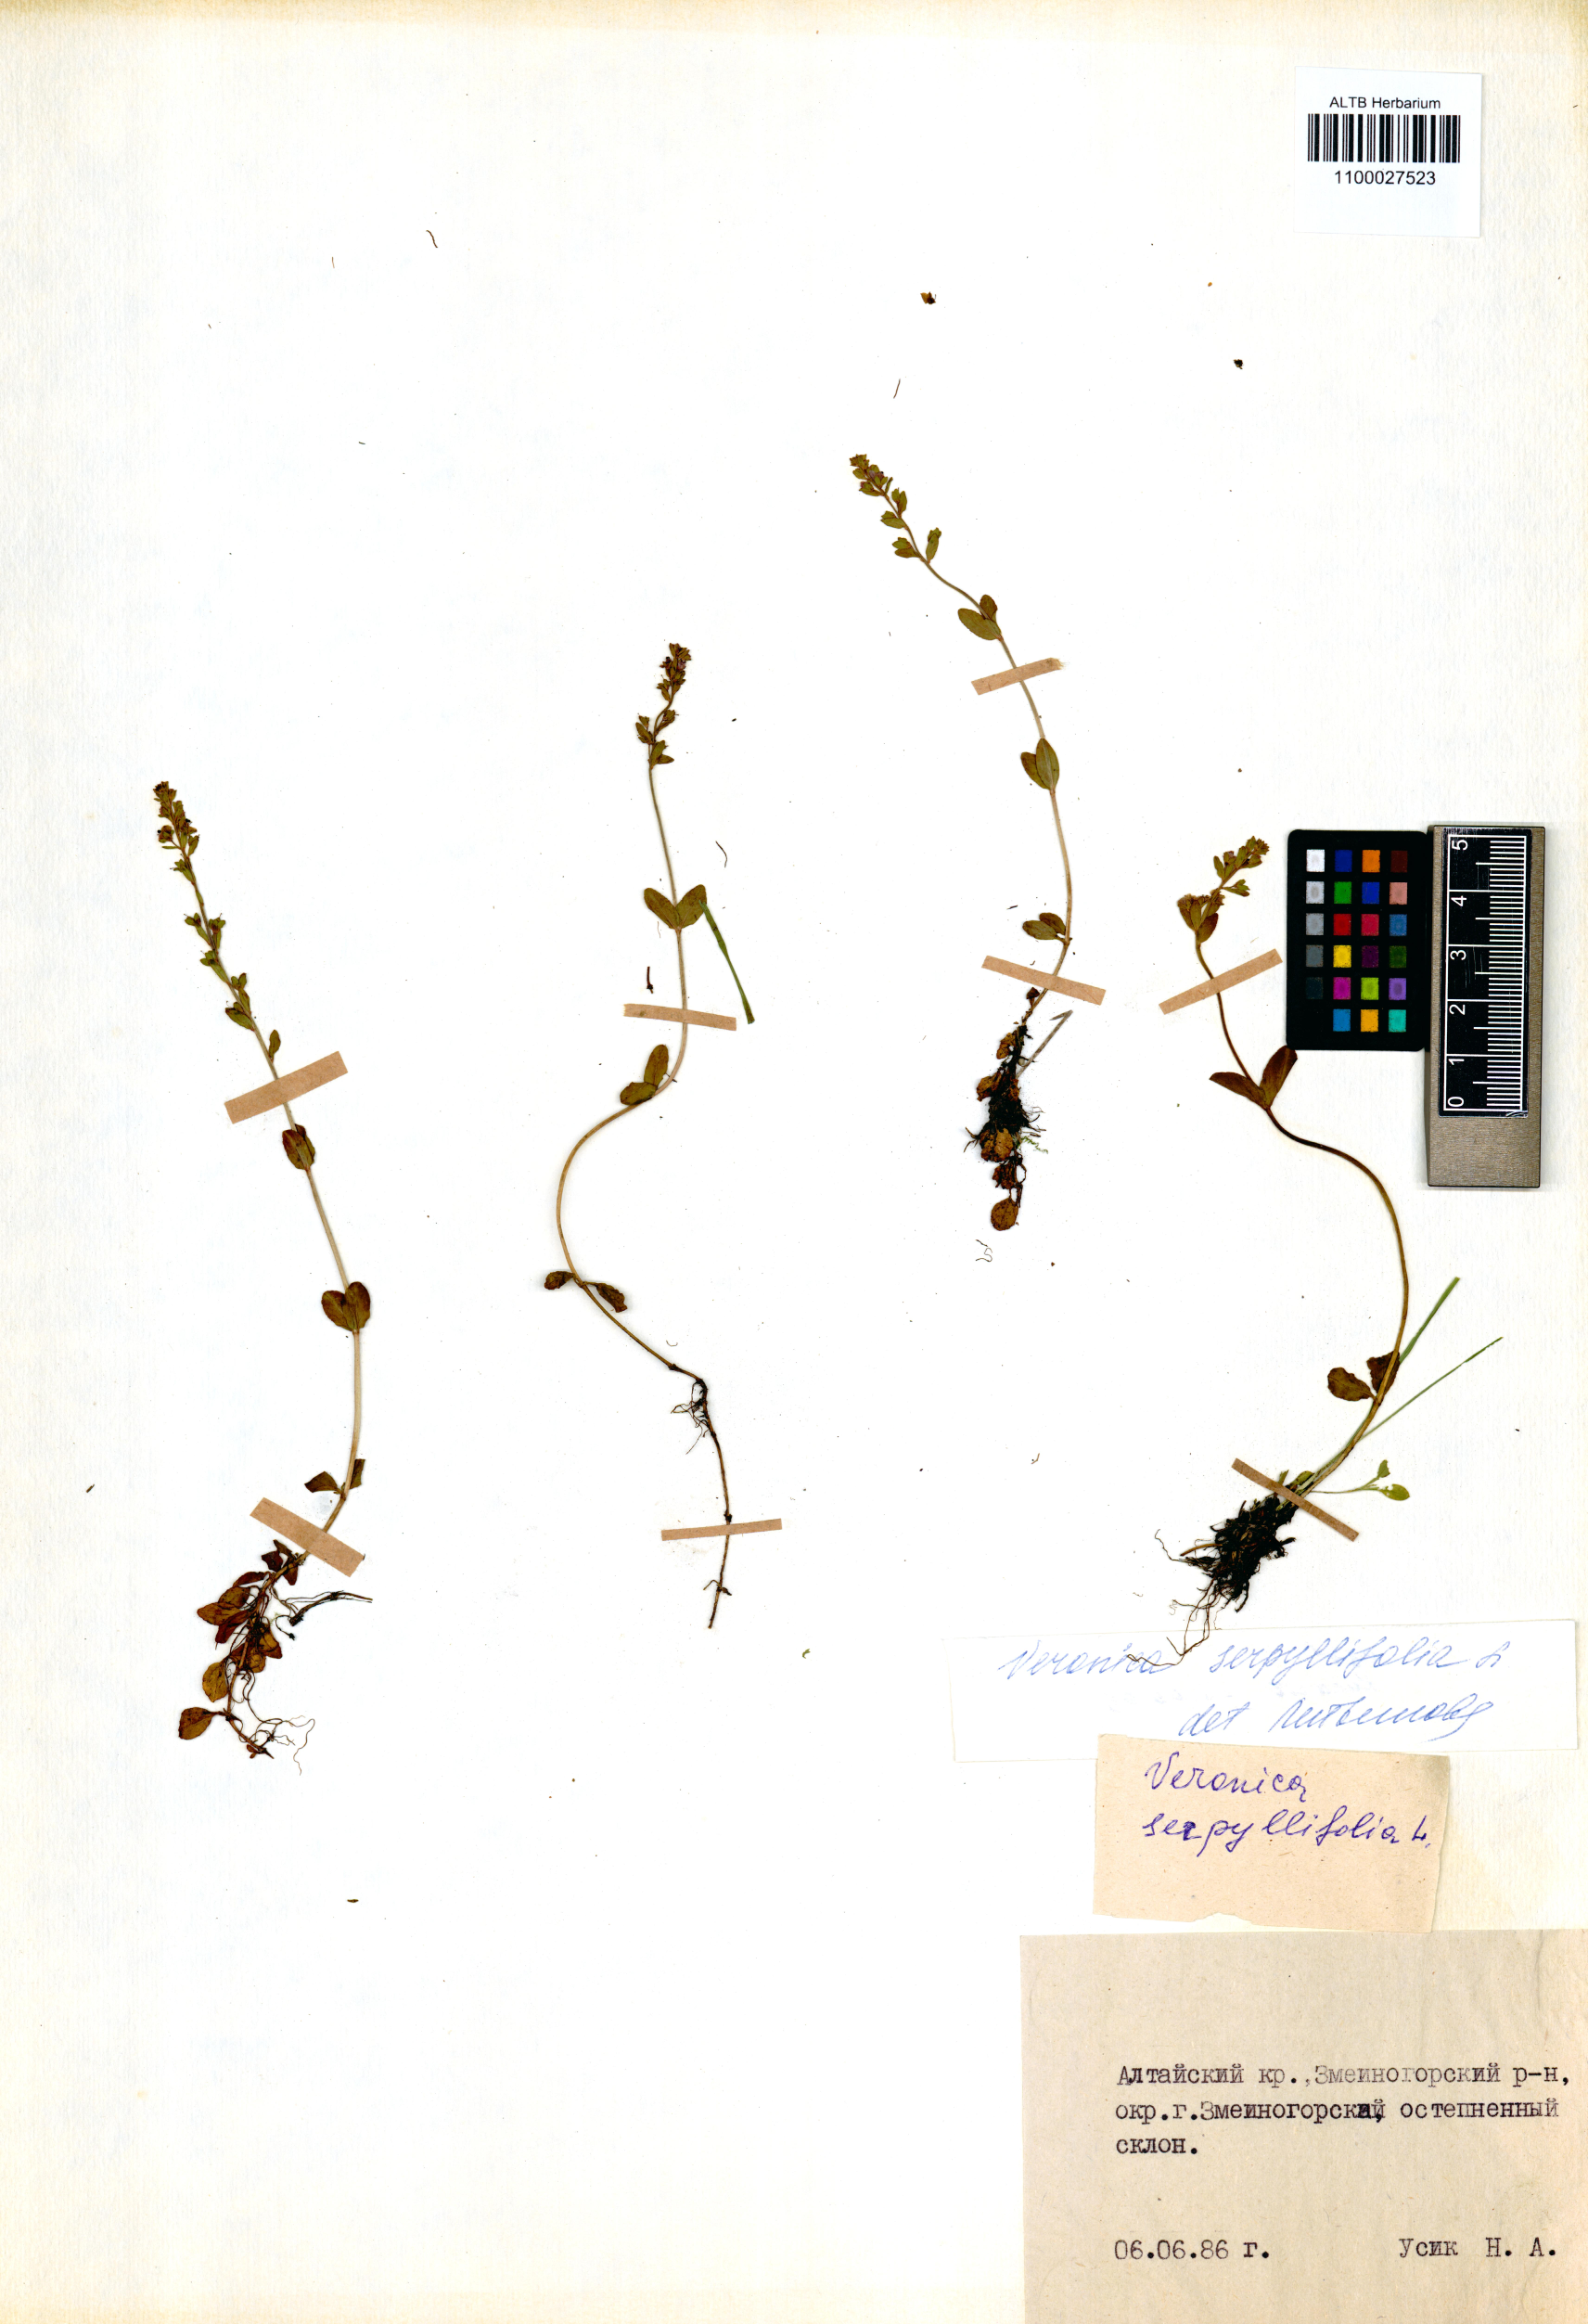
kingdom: Plantae
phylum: Tracheophyta
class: Magnoliopsida
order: Lamiales
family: Plantaginaceae
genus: Veronica
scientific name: Veronica serpyllifolia
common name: Thyme-leaved speedwell
